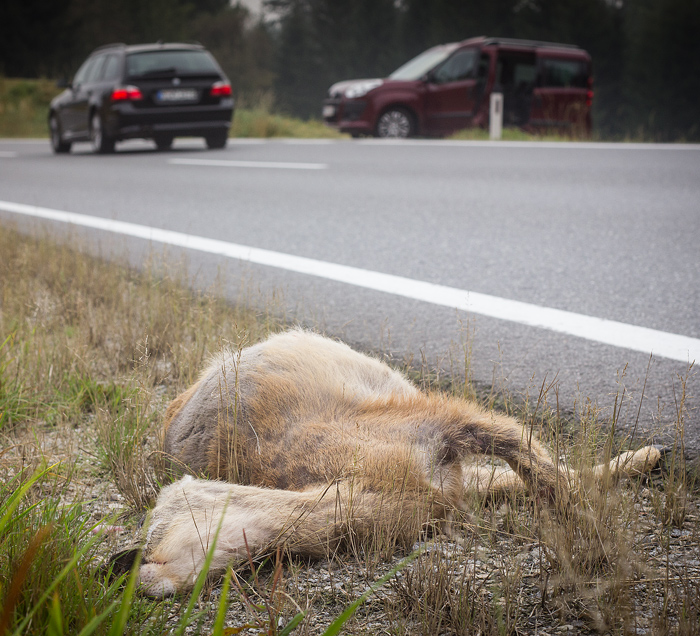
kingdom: Animalia
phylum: Chordata
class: Mammalia
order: Artiodactyla
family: Cervidae
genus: Capreolus
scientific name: Capreolus capreolus
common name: Western roe deer
